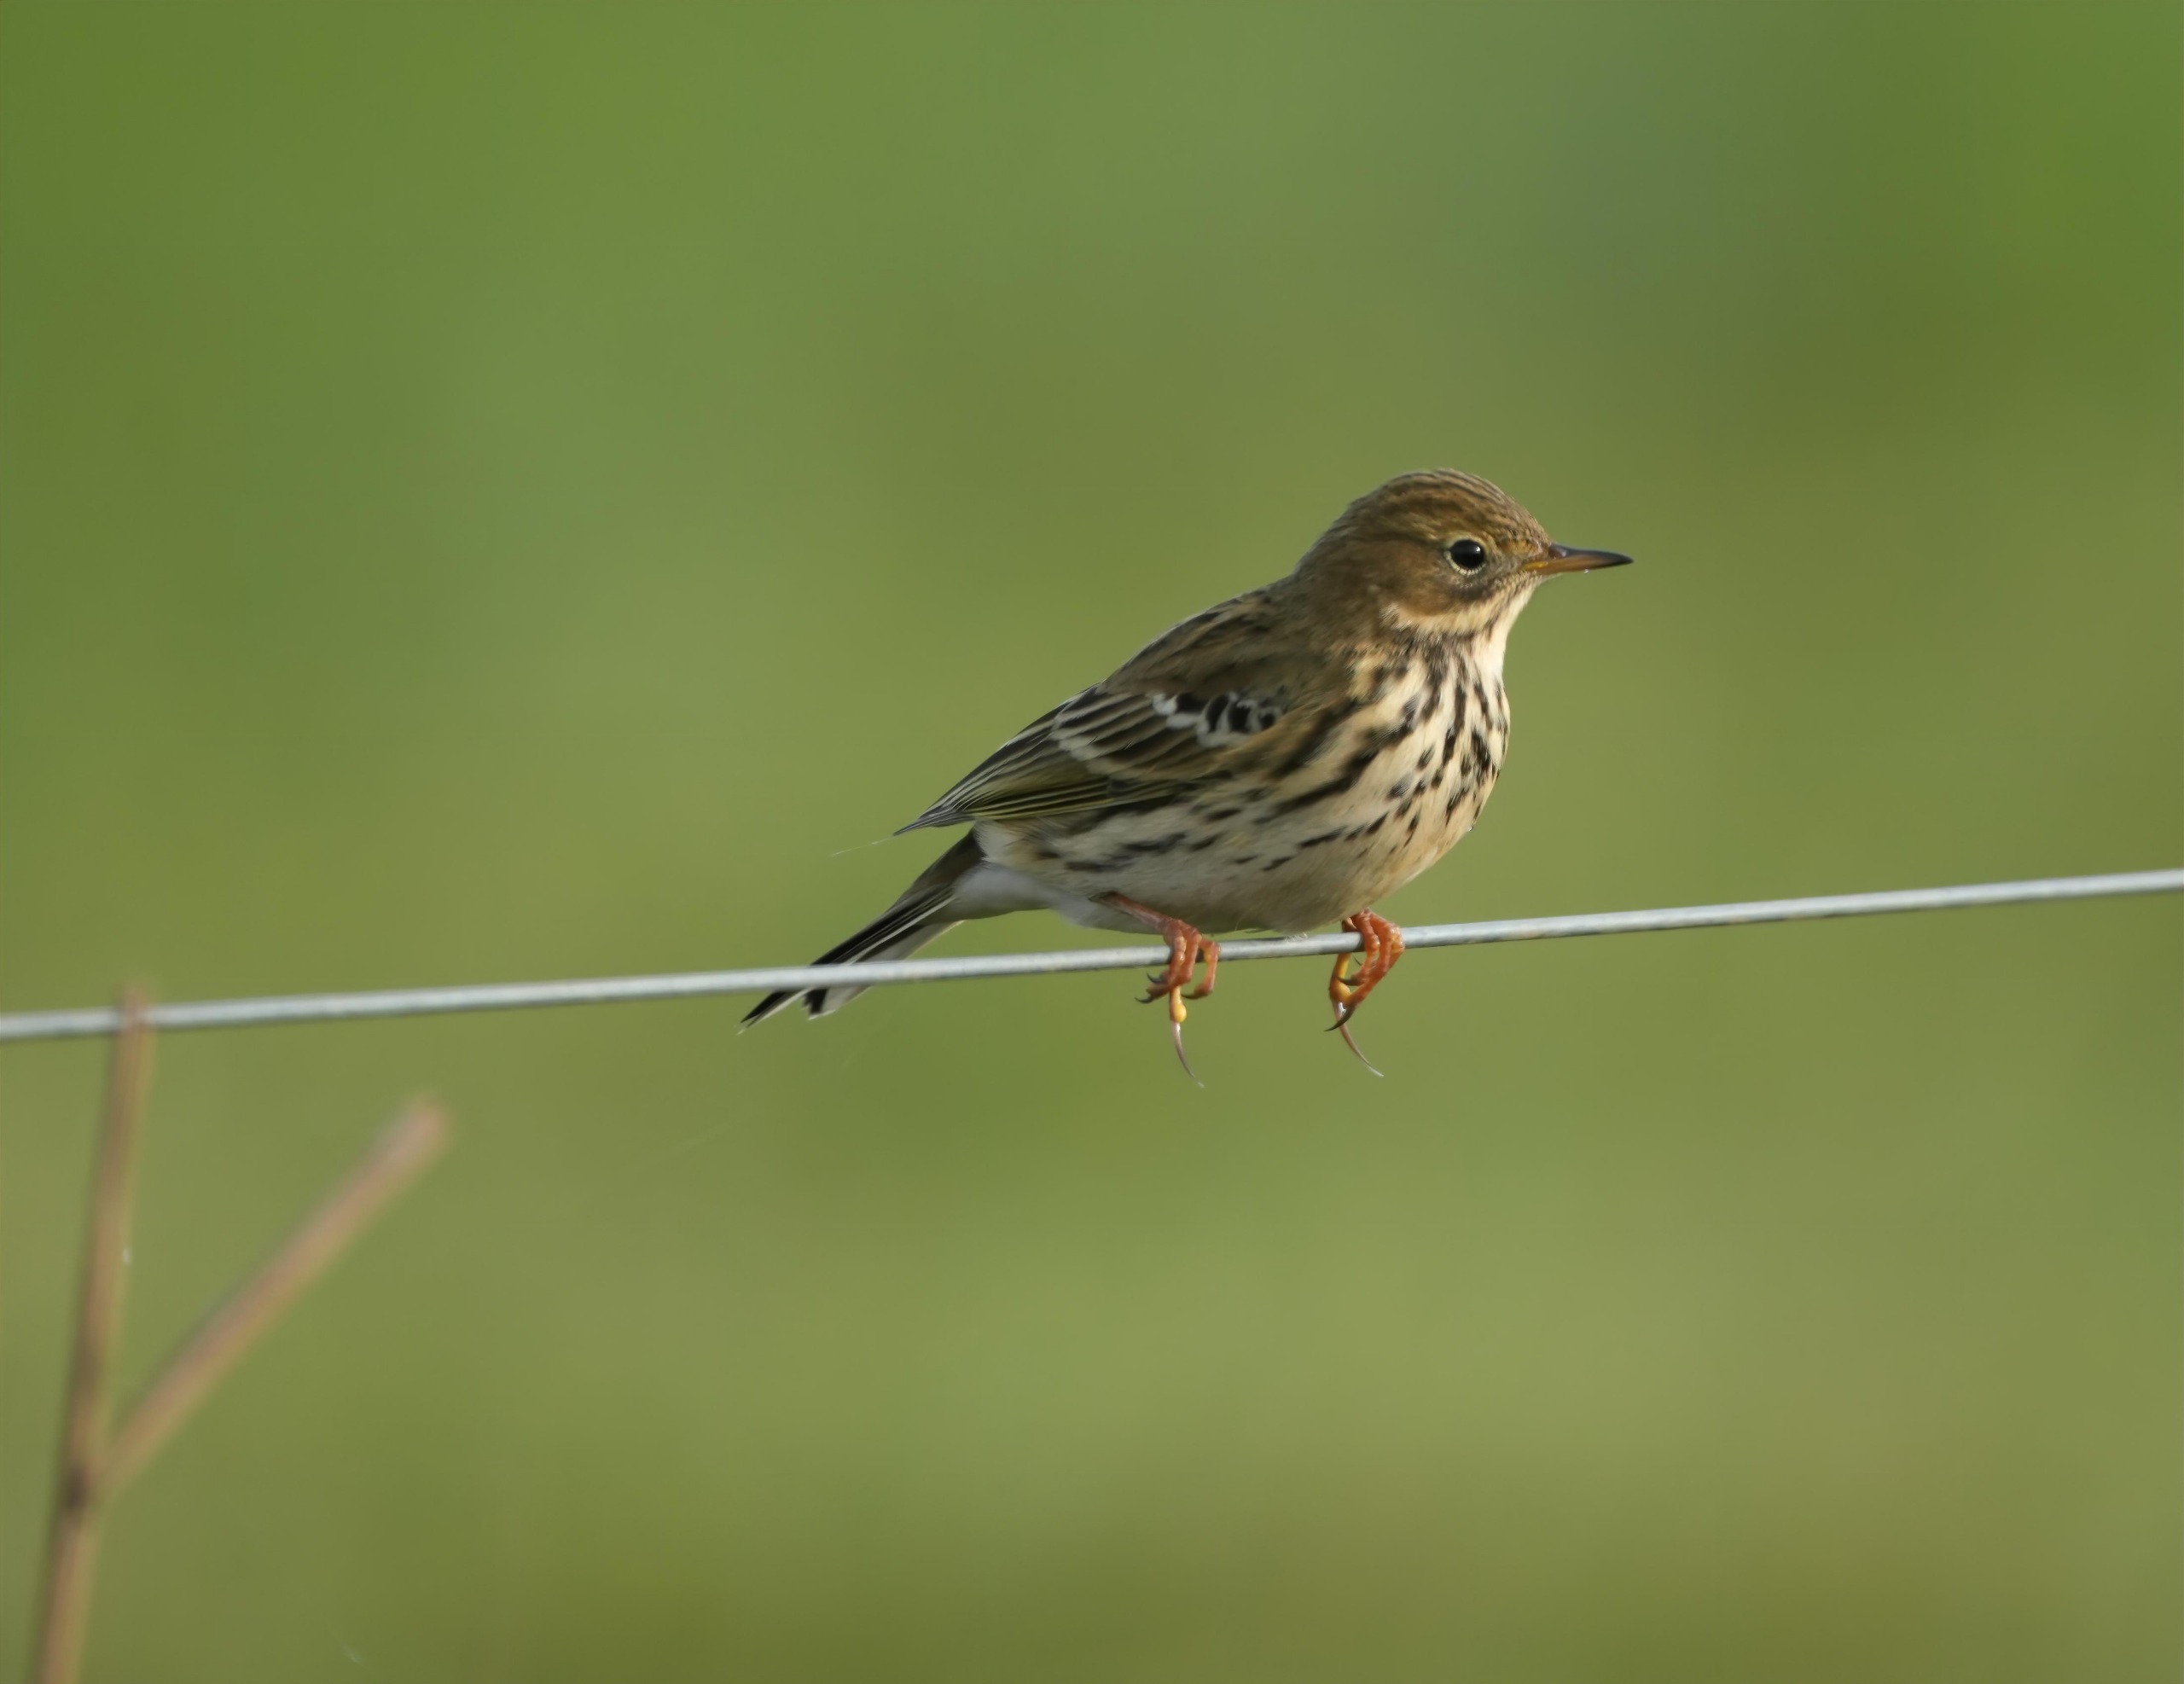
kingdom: Animalia
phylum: Chordata
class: Aves
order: Passeriformes
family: Motacillidae
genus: Anthus
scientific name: Anthus pratensis
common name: Engpiber
